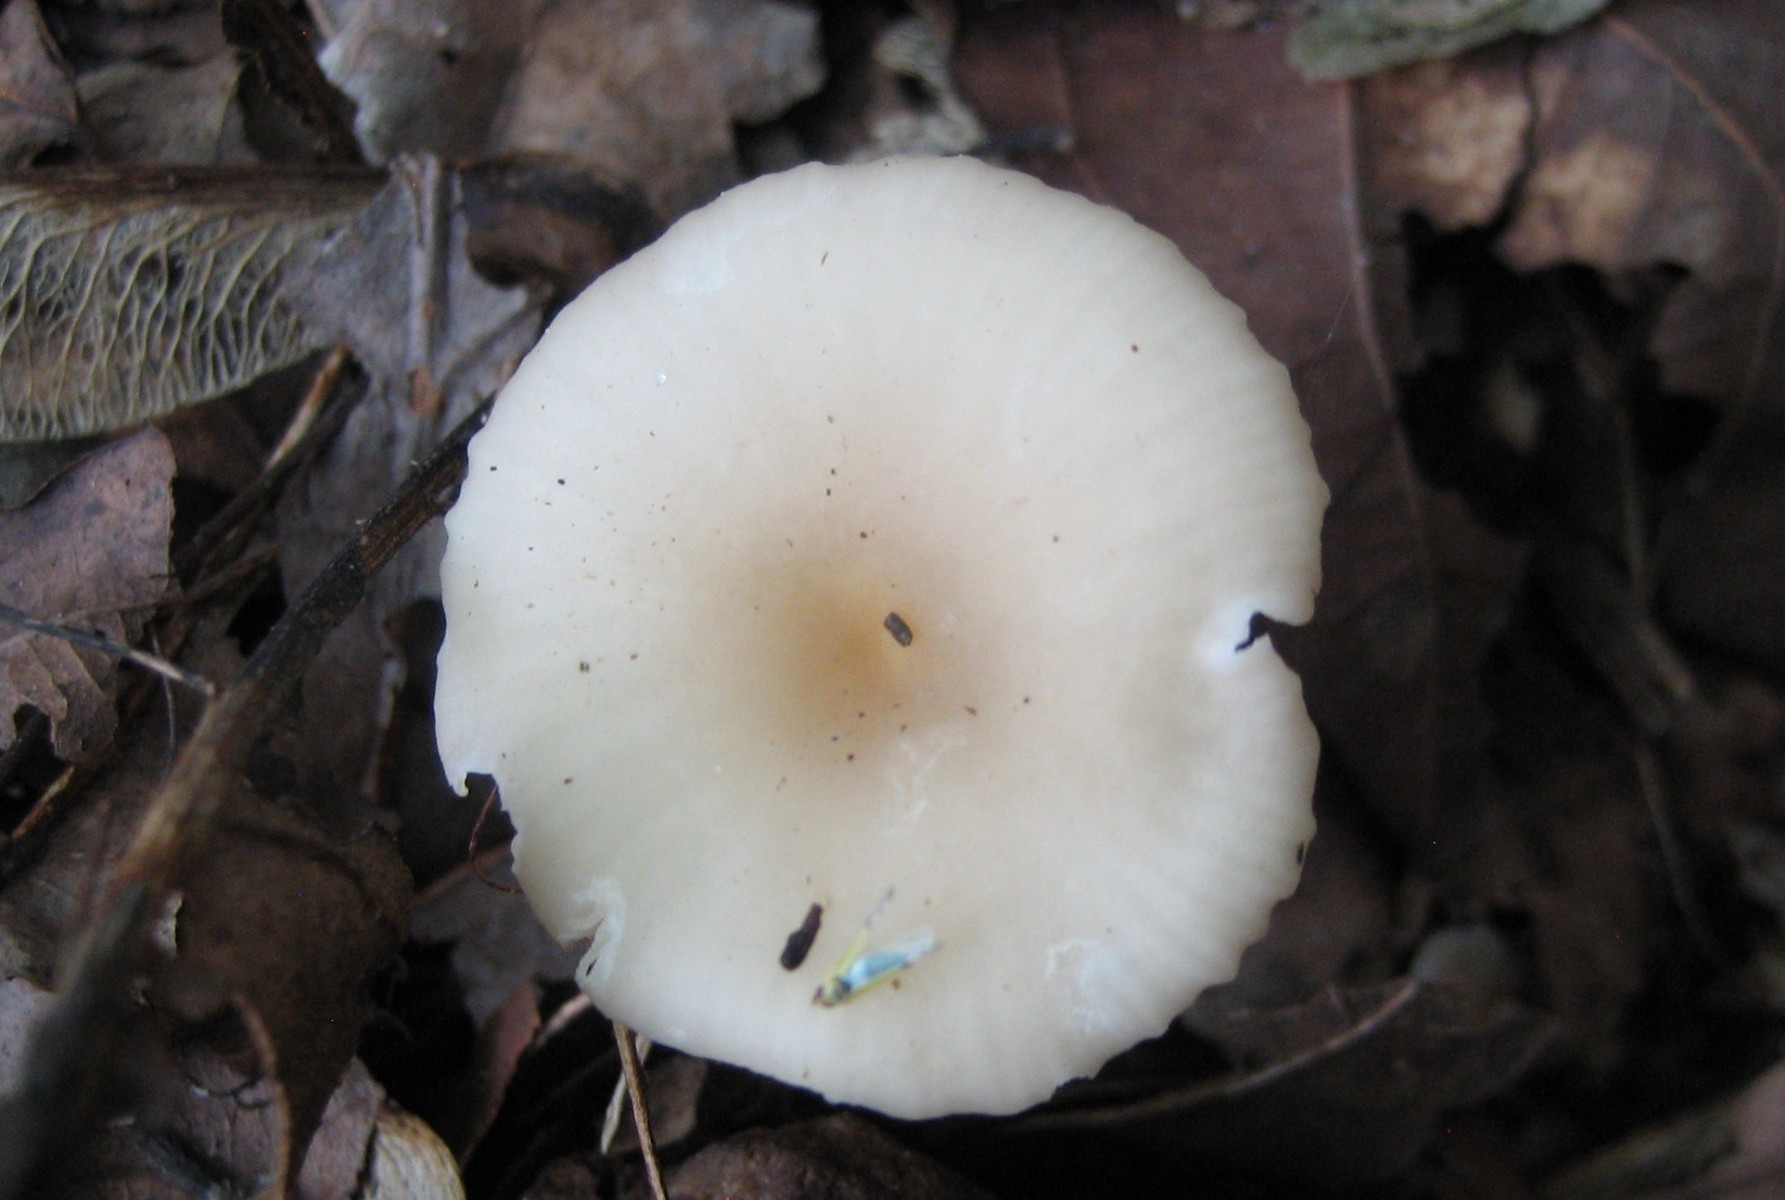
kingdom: Fungi
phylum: Basidiomycota
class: Agaricomycetes
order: Agaricales
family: Tricholomataceae
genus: Clitocybe
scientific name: Clitocybe phaeophthalma
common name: stinkende tragthat
